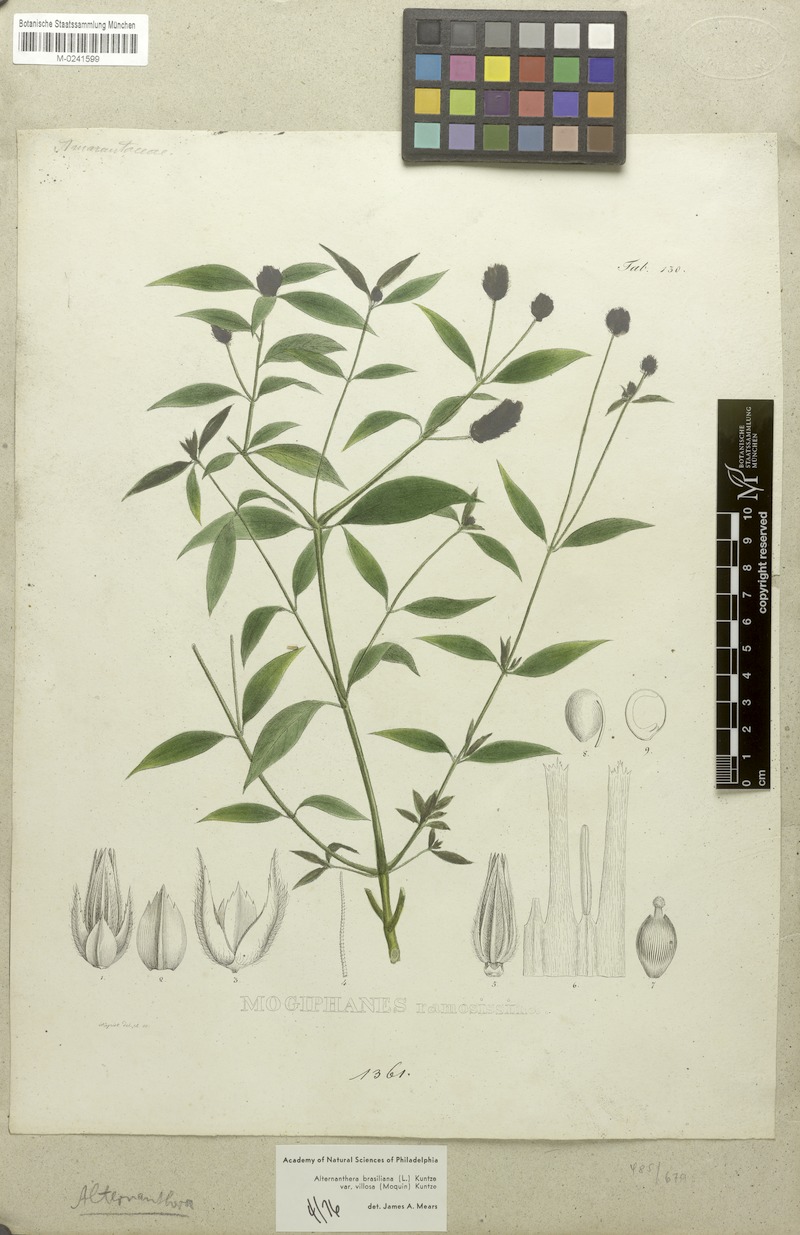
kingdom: Plantae
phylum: Tracheophyta
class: Magnoliopsida
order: Caryophyllales
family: Amaranthaceae
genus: Alternanthera
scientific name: Alternanthera ramosissima
